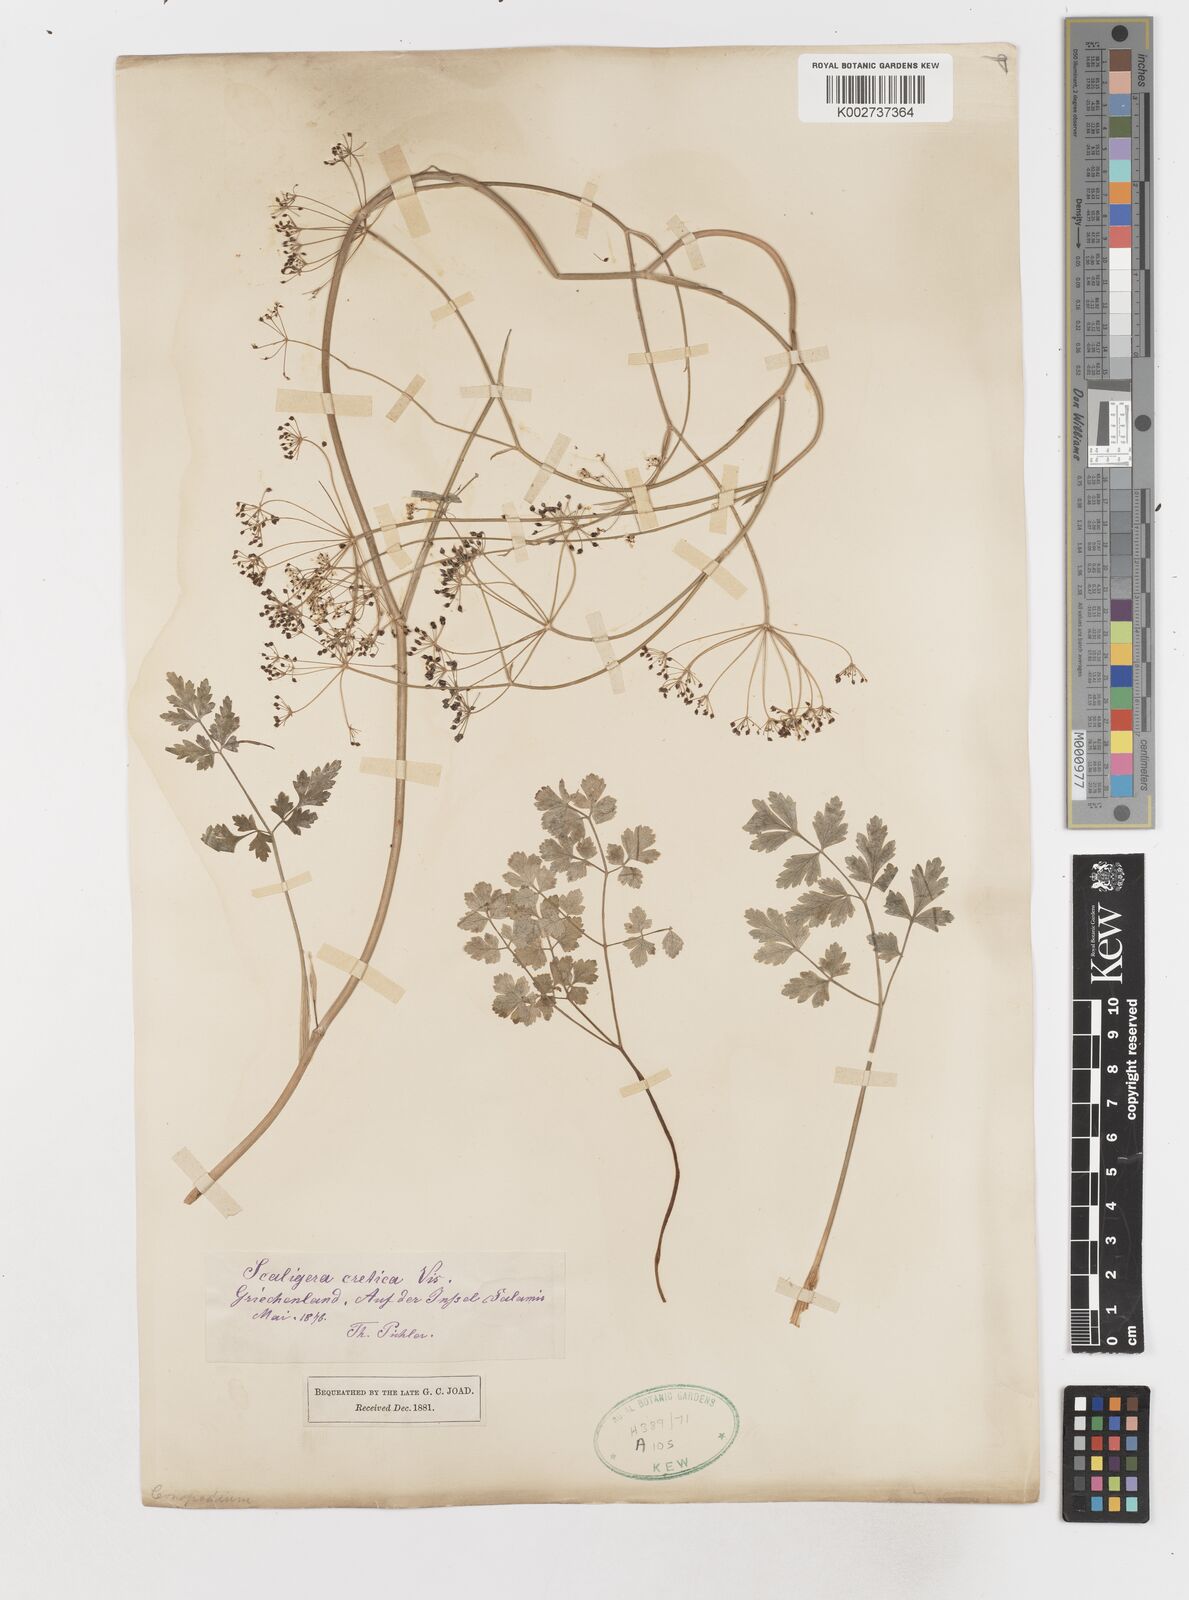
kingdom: Plantae
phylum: Tracheophyta
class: Magnoliopsida
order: Apiales
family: Apiaceae
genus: Scaligeria
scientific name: Scaligeria
